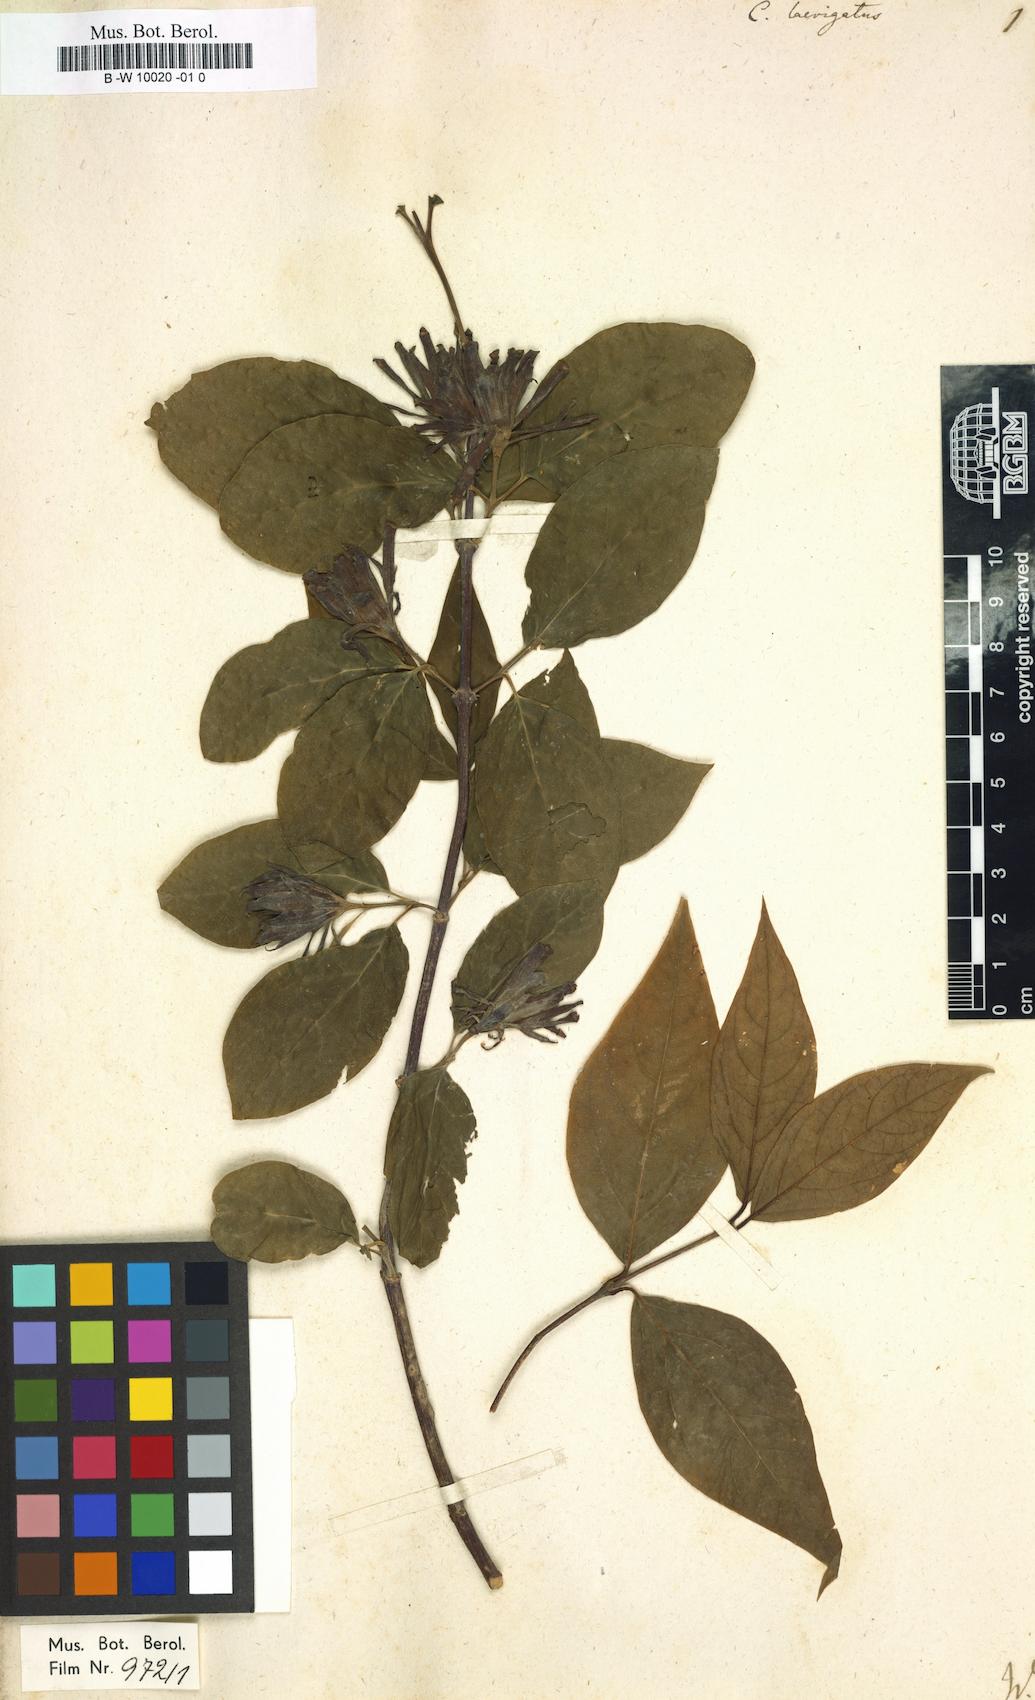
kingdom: Plantae
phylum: Tracheophyta
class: Magnoliopsida
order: Laurales
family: Calycanthaceae
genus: Calycanthus
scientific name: Calycanthus floridus
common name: Carolina-allspice
